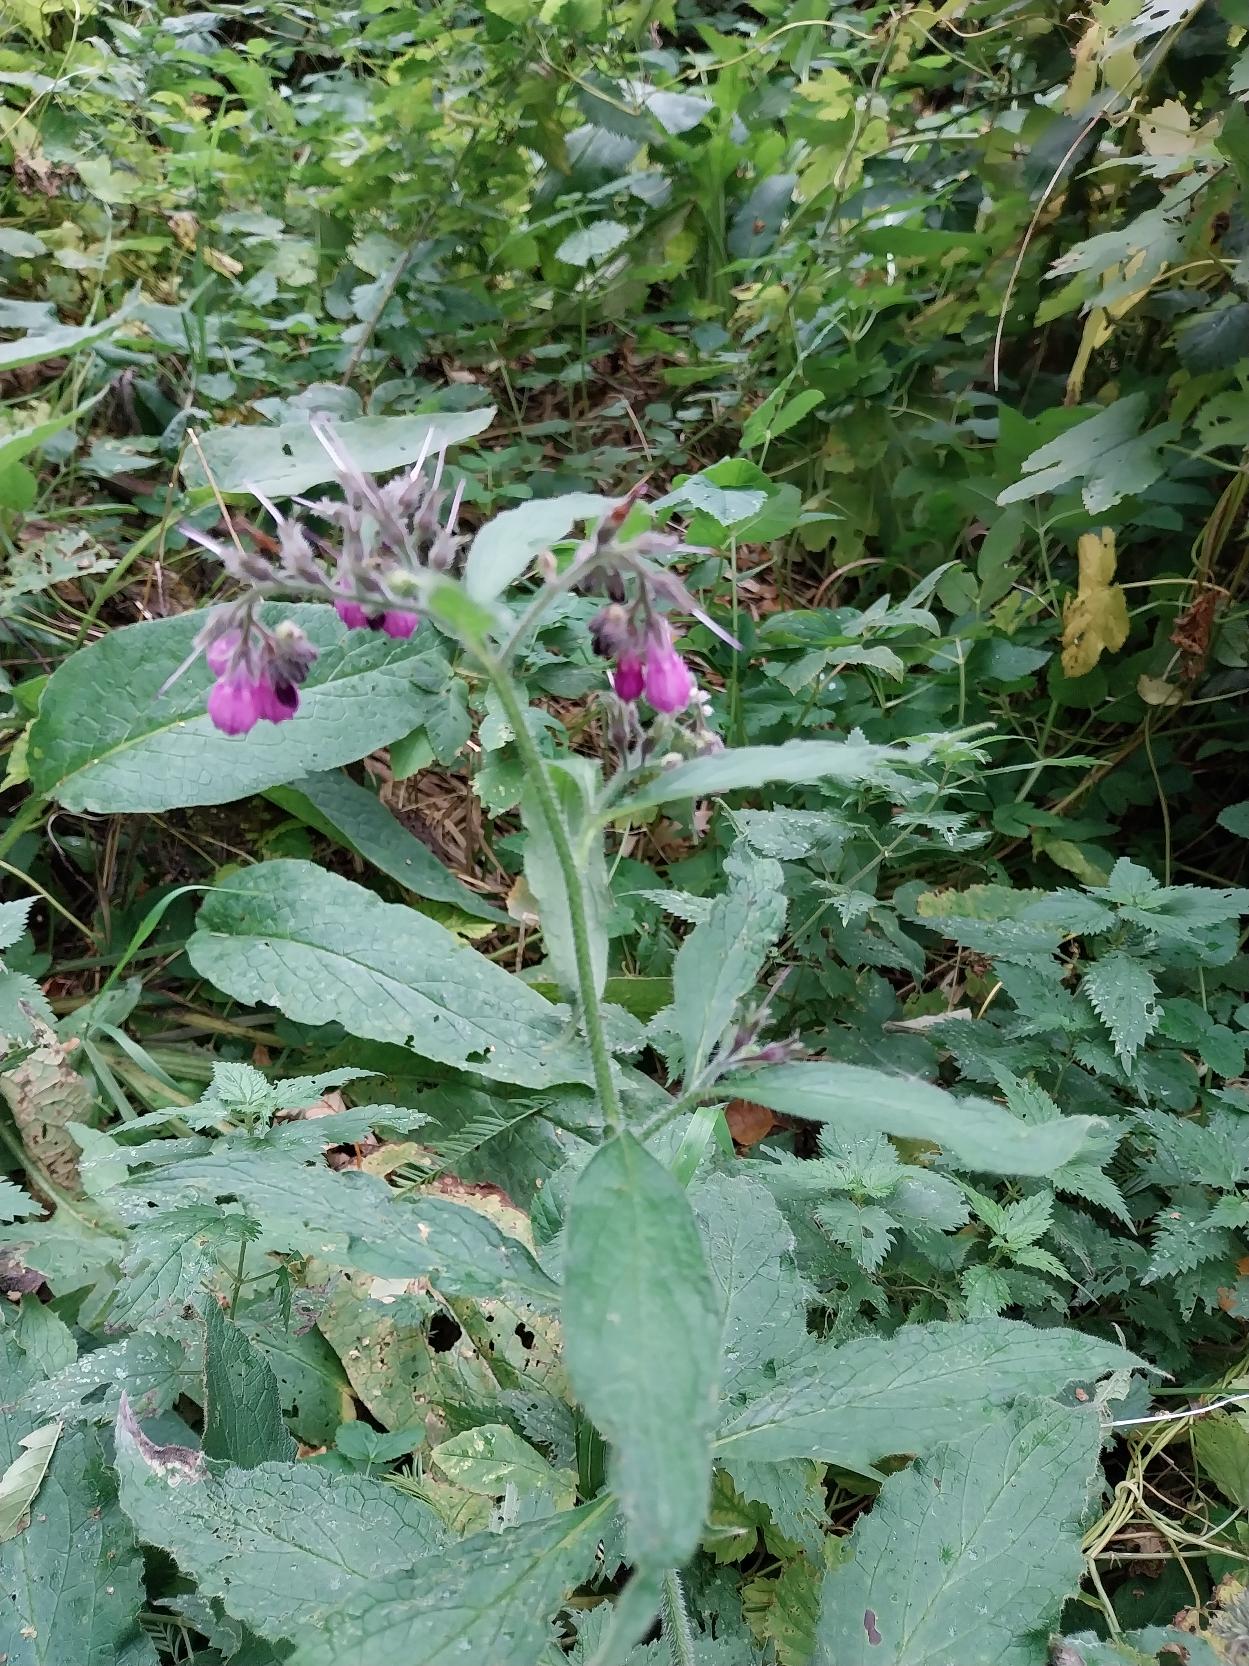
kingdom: Plantae
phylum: Tracheophyta
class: Magnoliopsida
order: Boraginales
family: Boraginaceae
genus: Symphytum
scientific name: Symphytum uplandicum
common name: Foder-kulsukker
